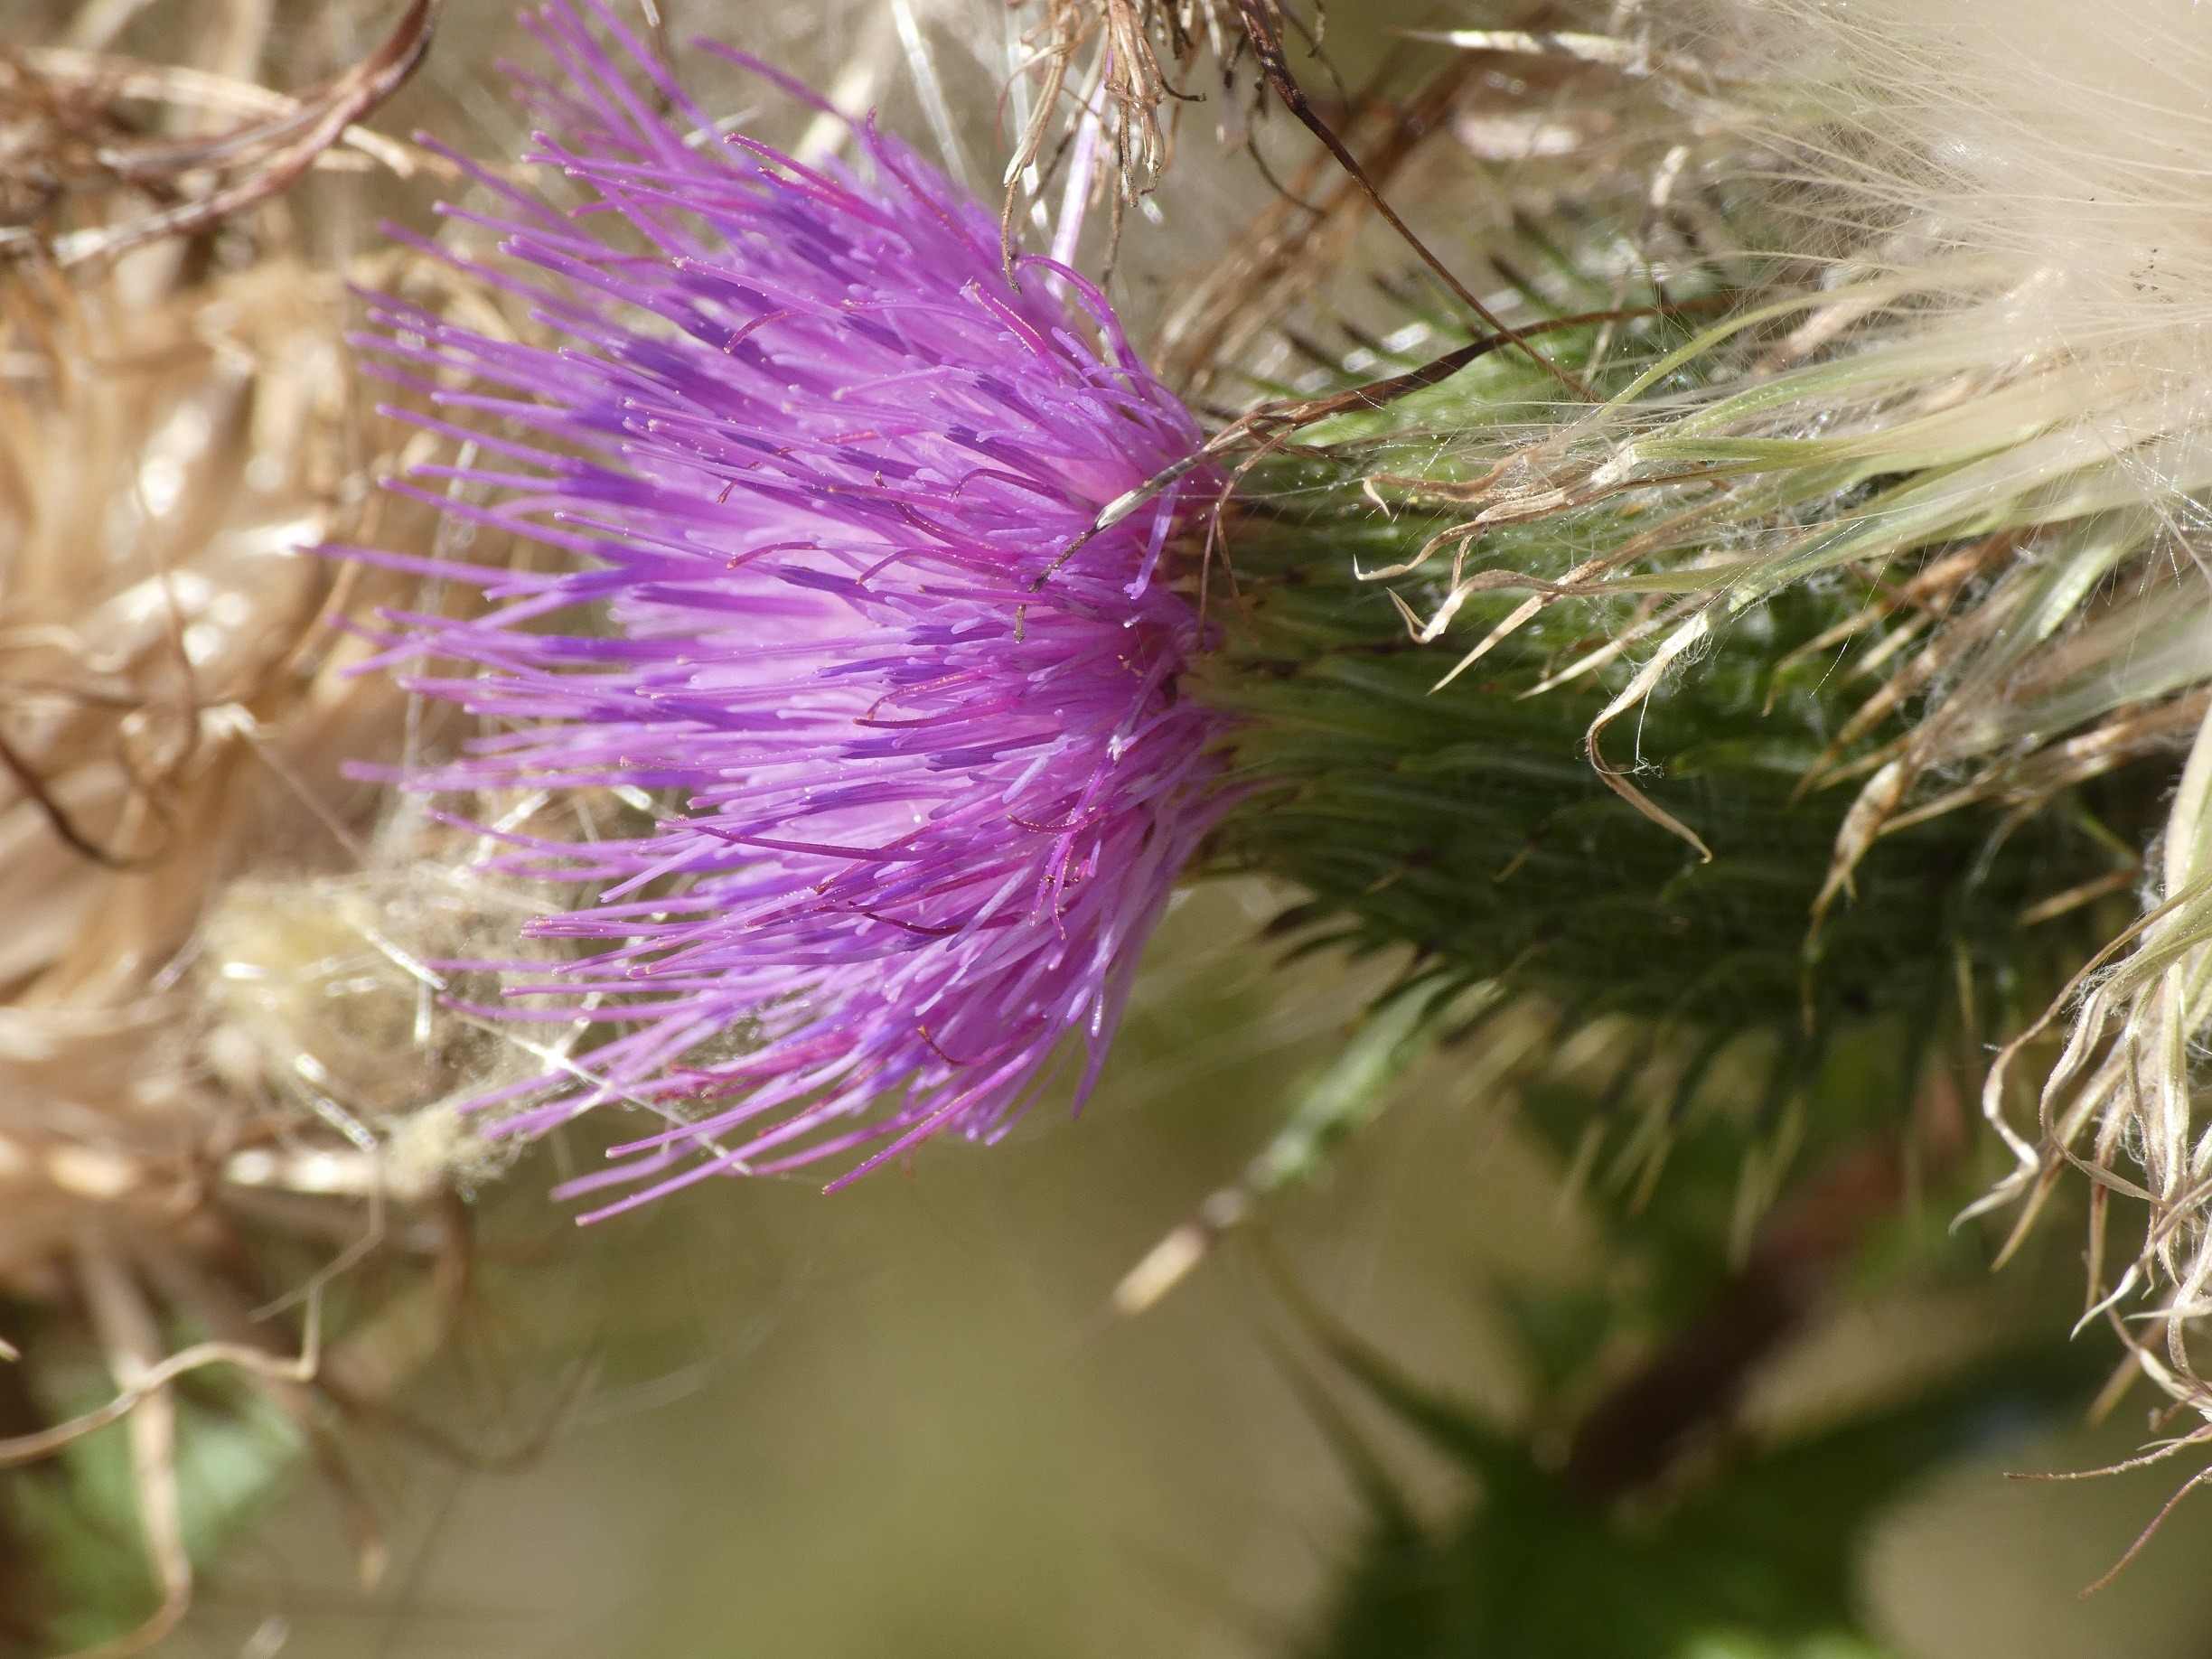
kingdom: Plantae
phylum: Tracheophyta
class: Magnoliopsida
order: Asterales
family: Asteraceae
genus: Cirsium
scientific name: Cirsium vulgare
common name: Horse-tidsel
